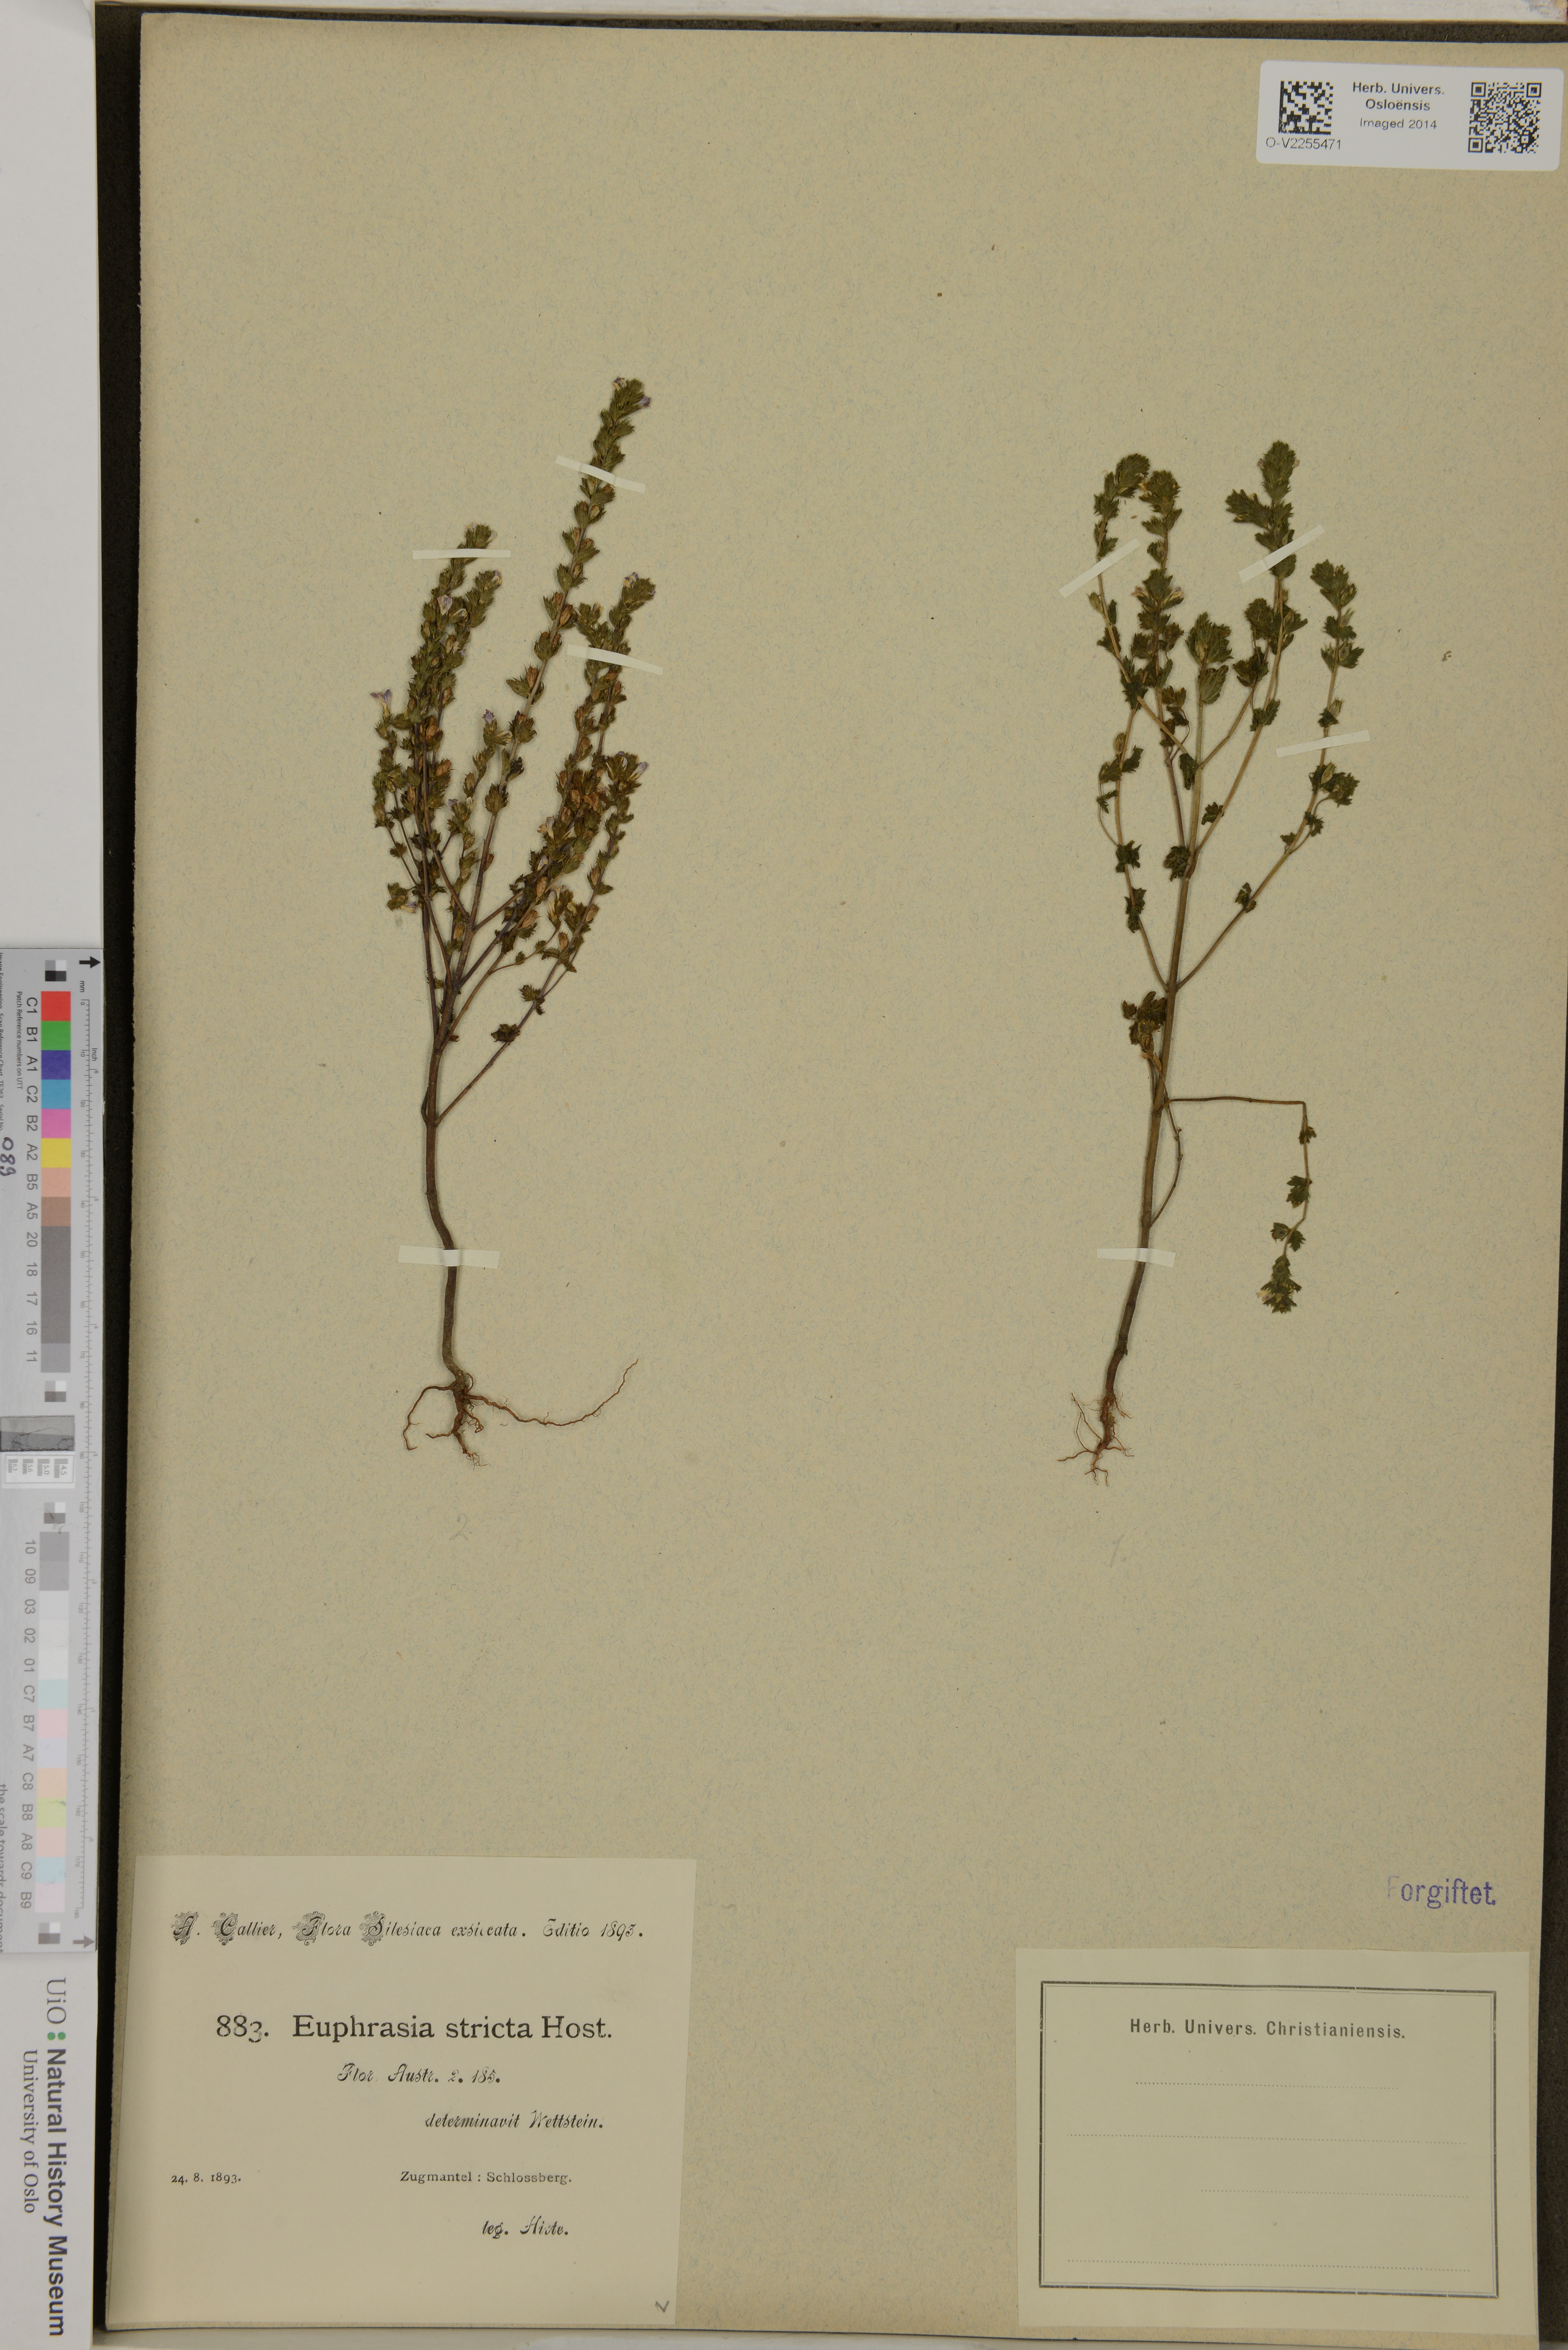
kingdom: Plantae
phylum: Tracheophyta
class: Magnoliopsida
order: Lamiales
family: Orobanchaceae
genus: Euphrasia
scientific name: Euphrasia stricta
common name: Drug eyebright
